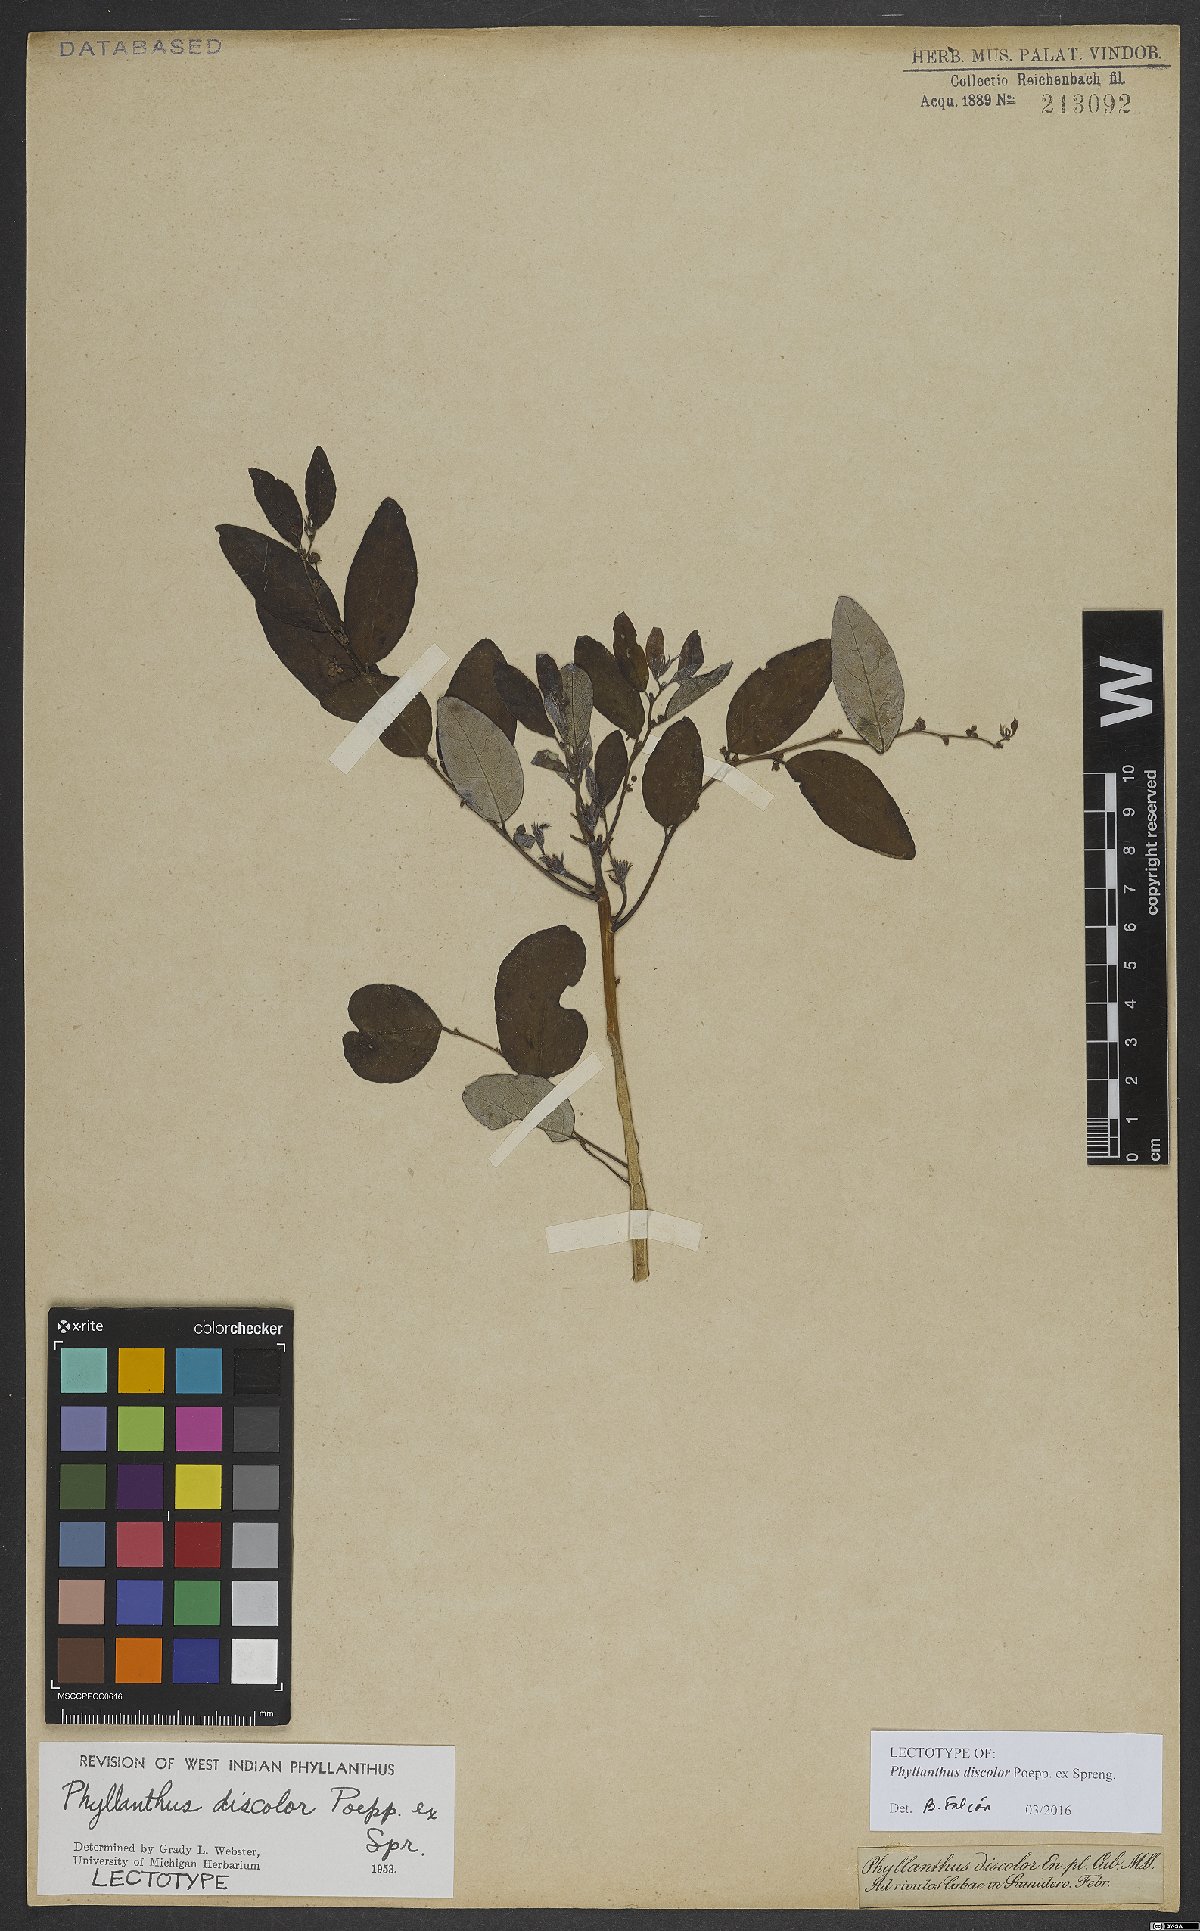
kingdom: Plantae
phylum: Tracheophyta
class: Magnoliopsida
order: Malpighiales
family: Phyllanthaceae
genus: Phyllanthus
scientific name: Phyllanthus discolor
